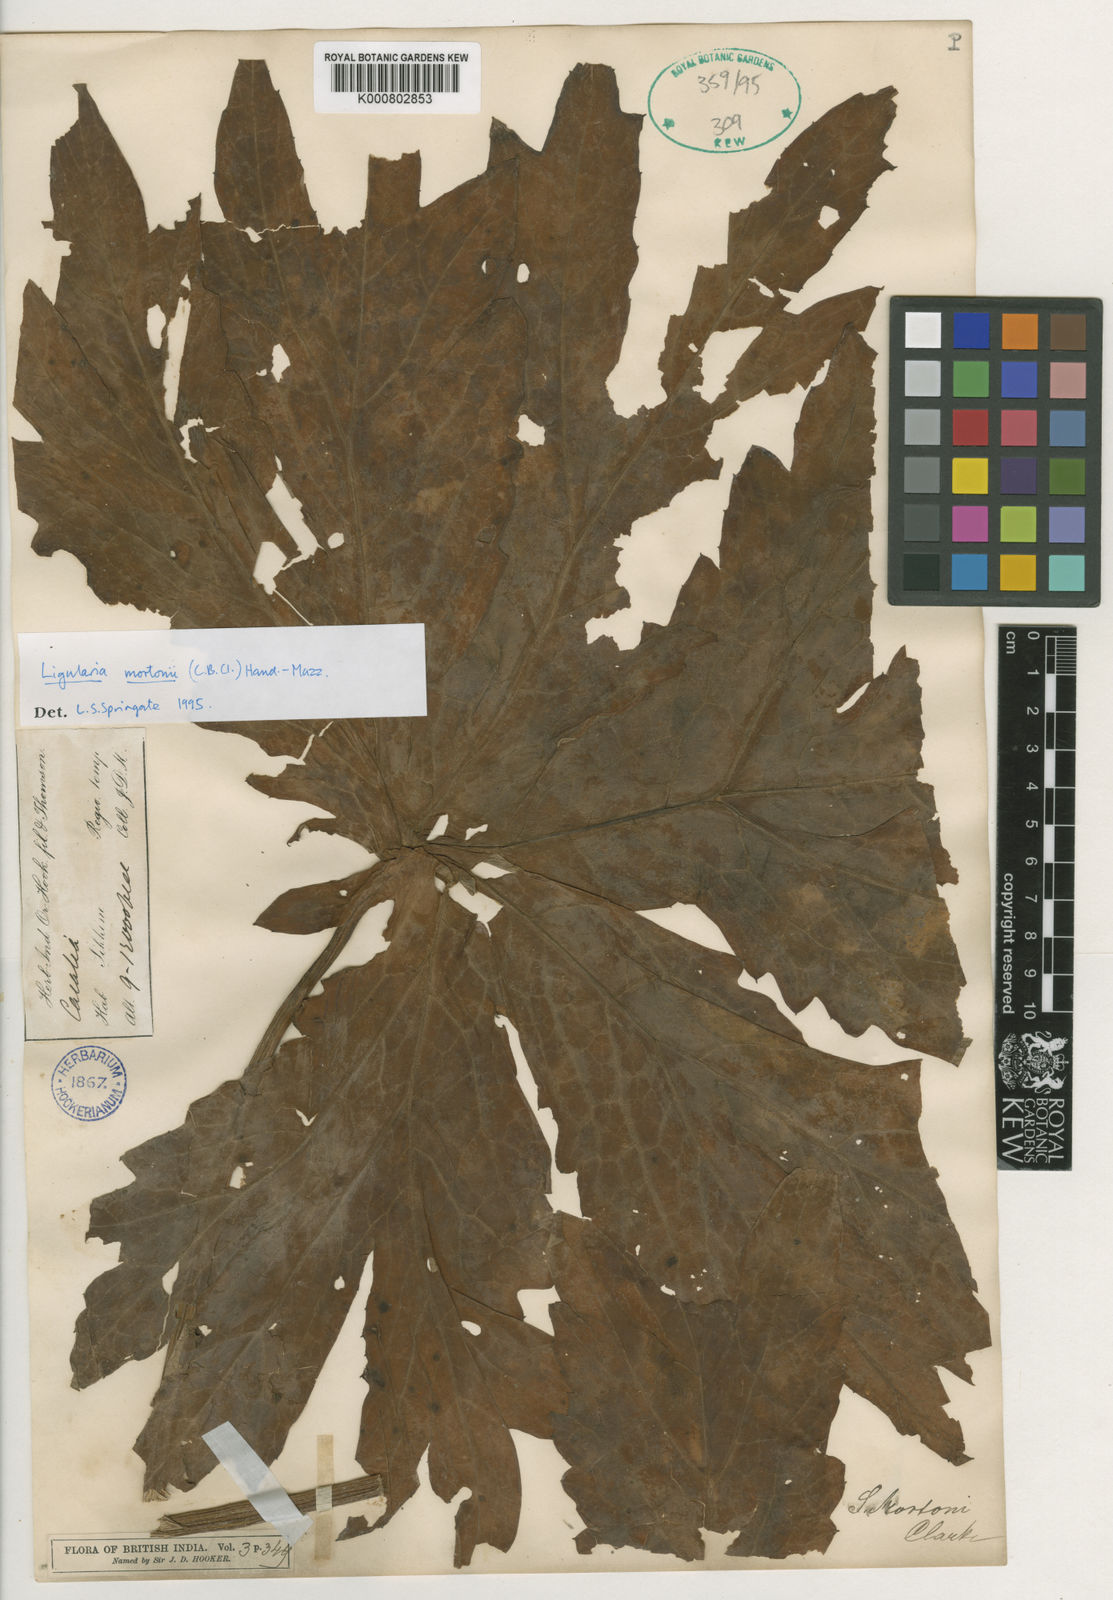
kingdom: Plantae
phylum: Tracheophyta
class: Magnoliopsida
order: Asterales
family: Asteraceae
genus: Ligularia
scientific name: Ligularia mortonii
